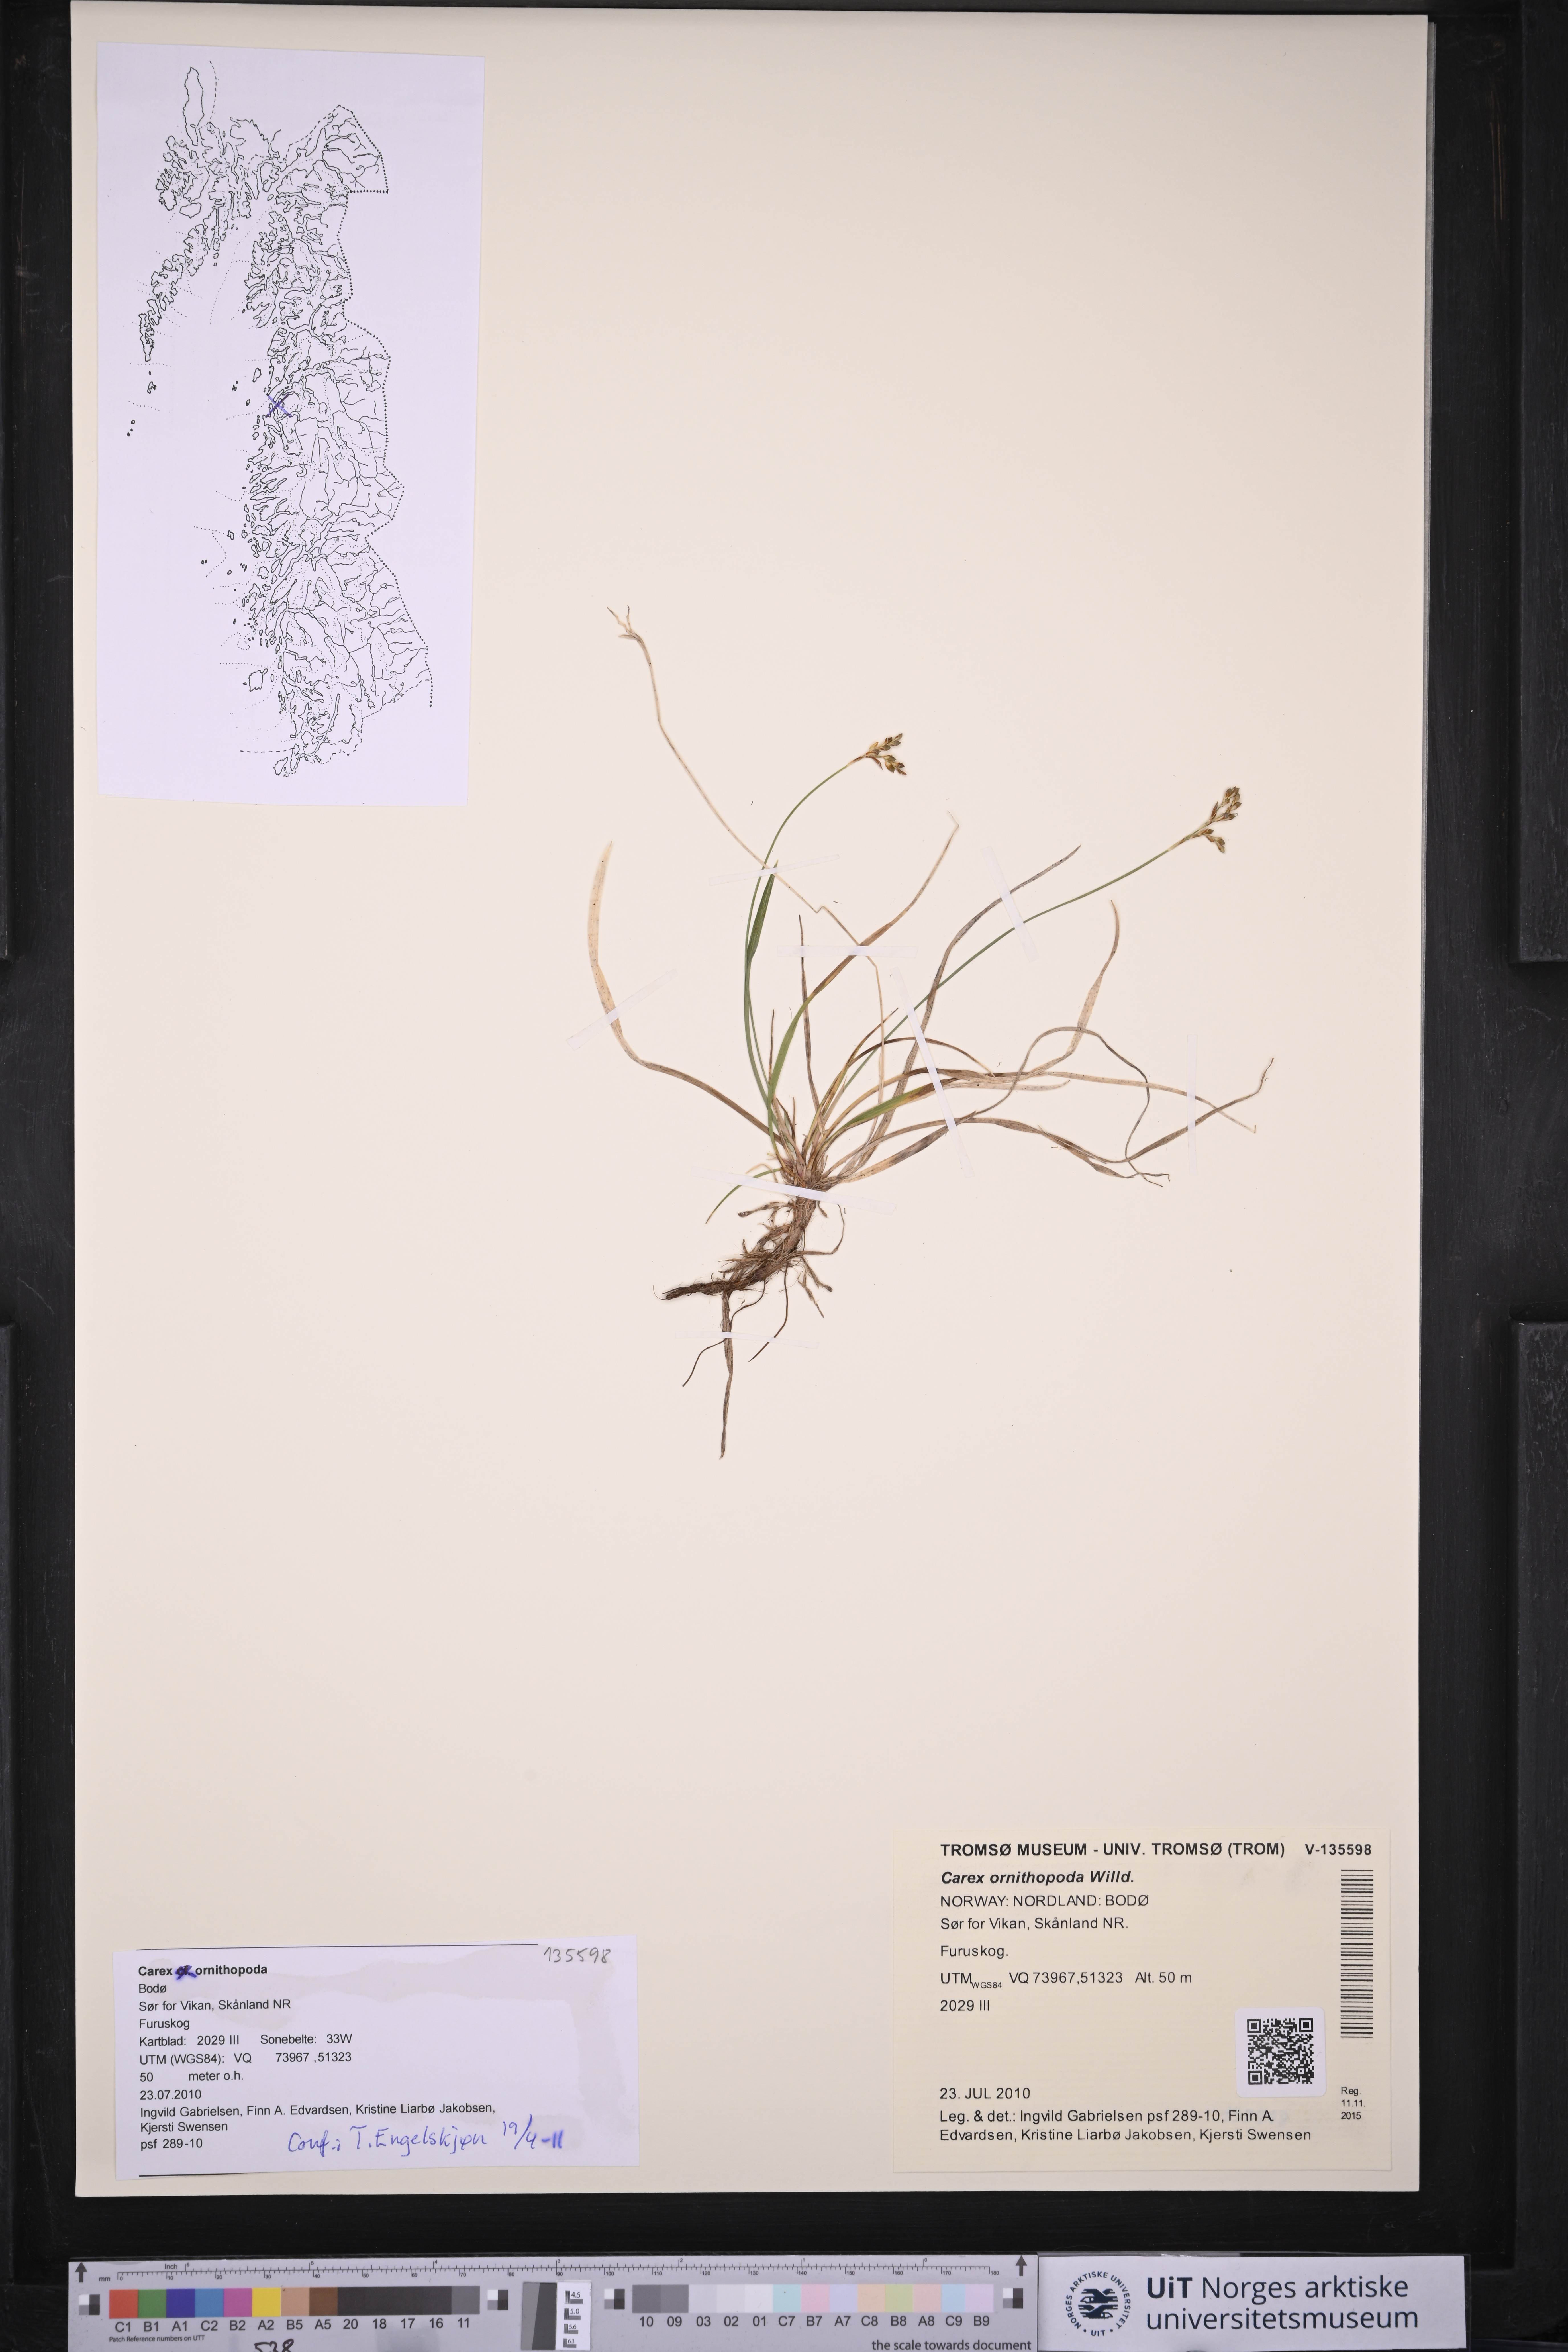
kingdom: Plantae
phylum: Tracheophyta
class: Liliopsida
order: Poales
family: Cyperaceae
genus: Carex
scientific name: Carex ornithopoda
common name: Bird's-foot sedge
